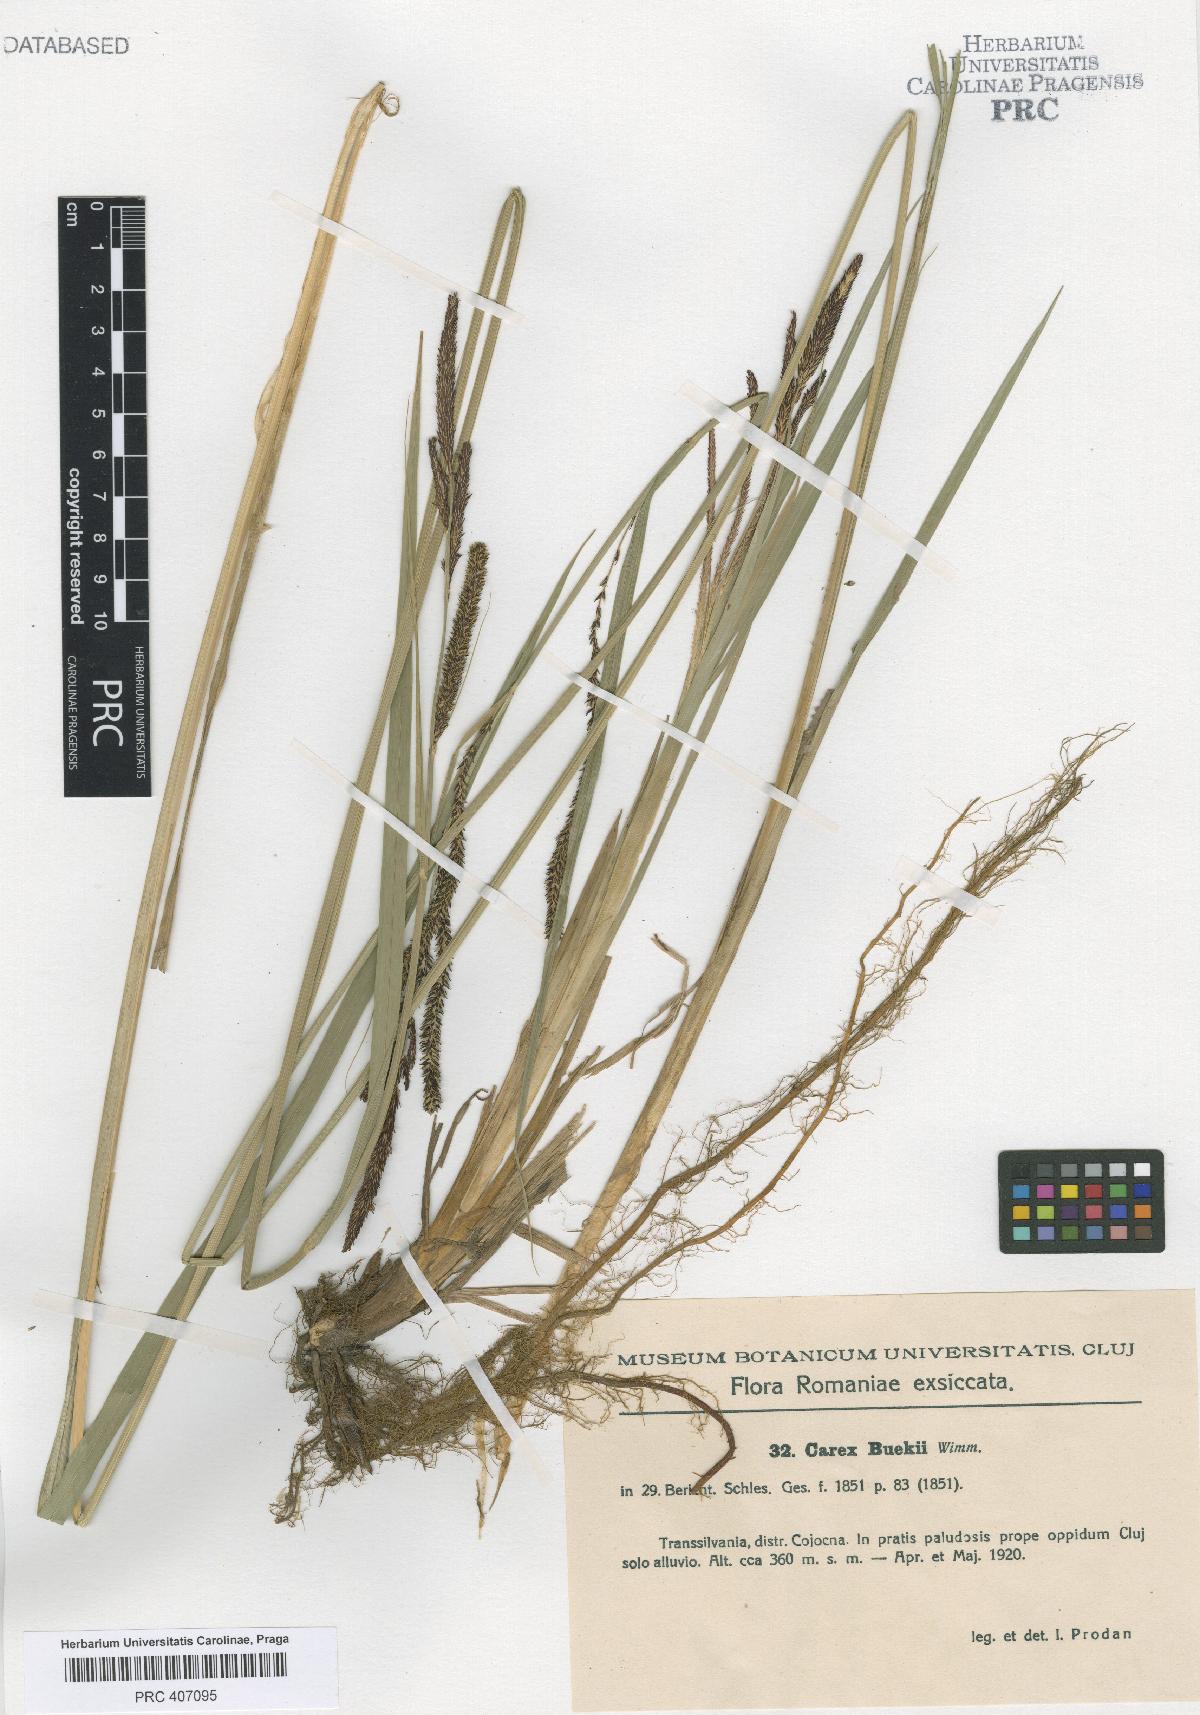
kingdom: Plantae
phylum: Tracheophyta
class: Liliopsida
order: Poales
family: Cyperaceae
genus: Carex
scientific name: Carex buekii
